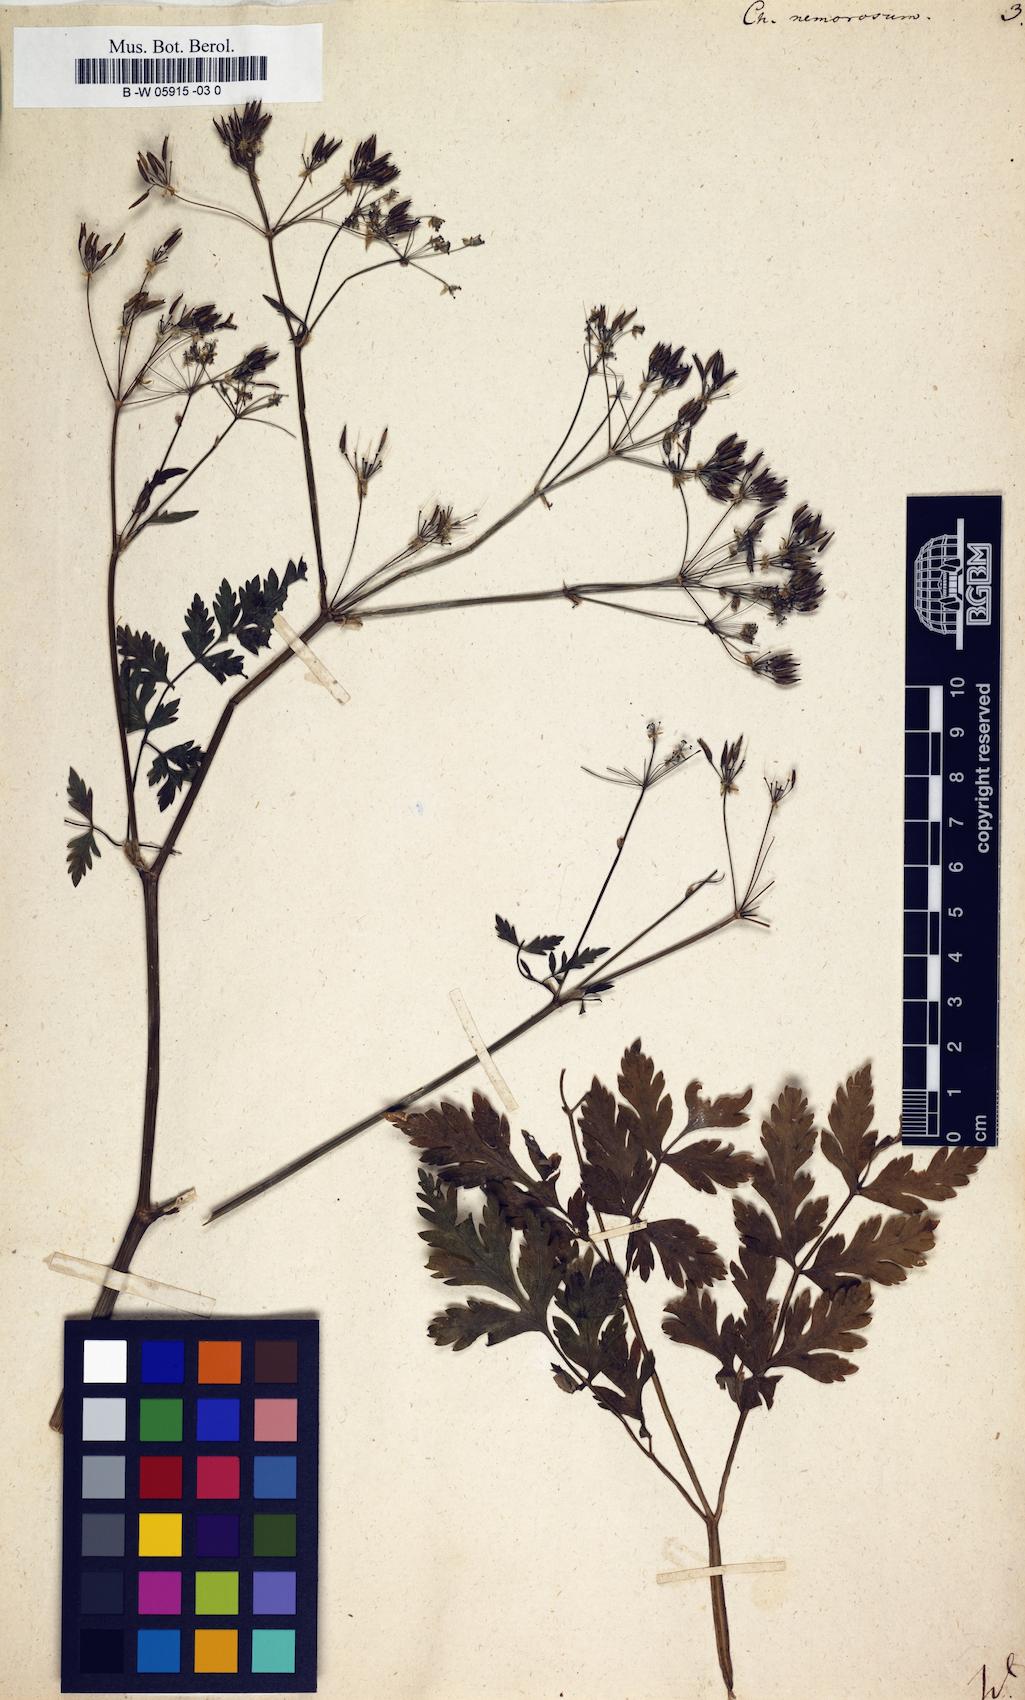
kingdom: Plantae
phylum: Tracheophyta
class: Magnoliopsida
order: Apiales
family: Apiaceae
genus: Anthriscus
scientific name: Anthriscus
